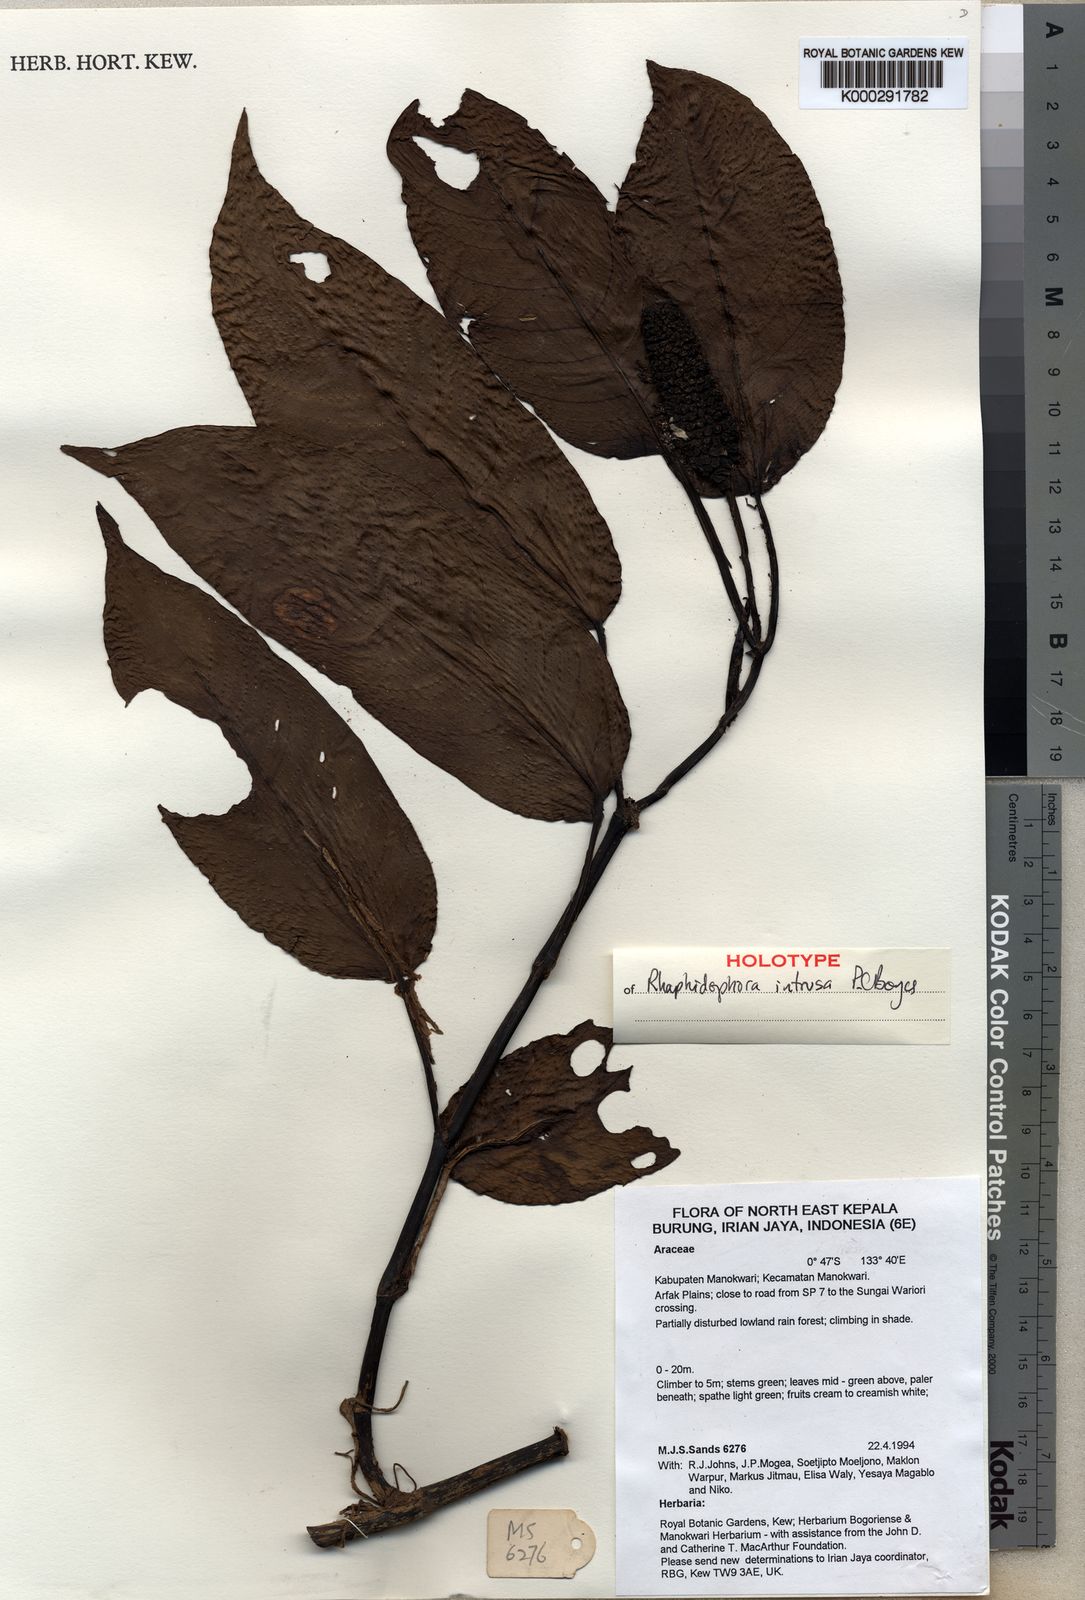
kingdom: Plantae
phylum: Tracheophyta
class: Liliopsida
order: Alismatales
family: Araceae
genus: Rhaphidophora
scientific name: Rhaphidophora intrusa
